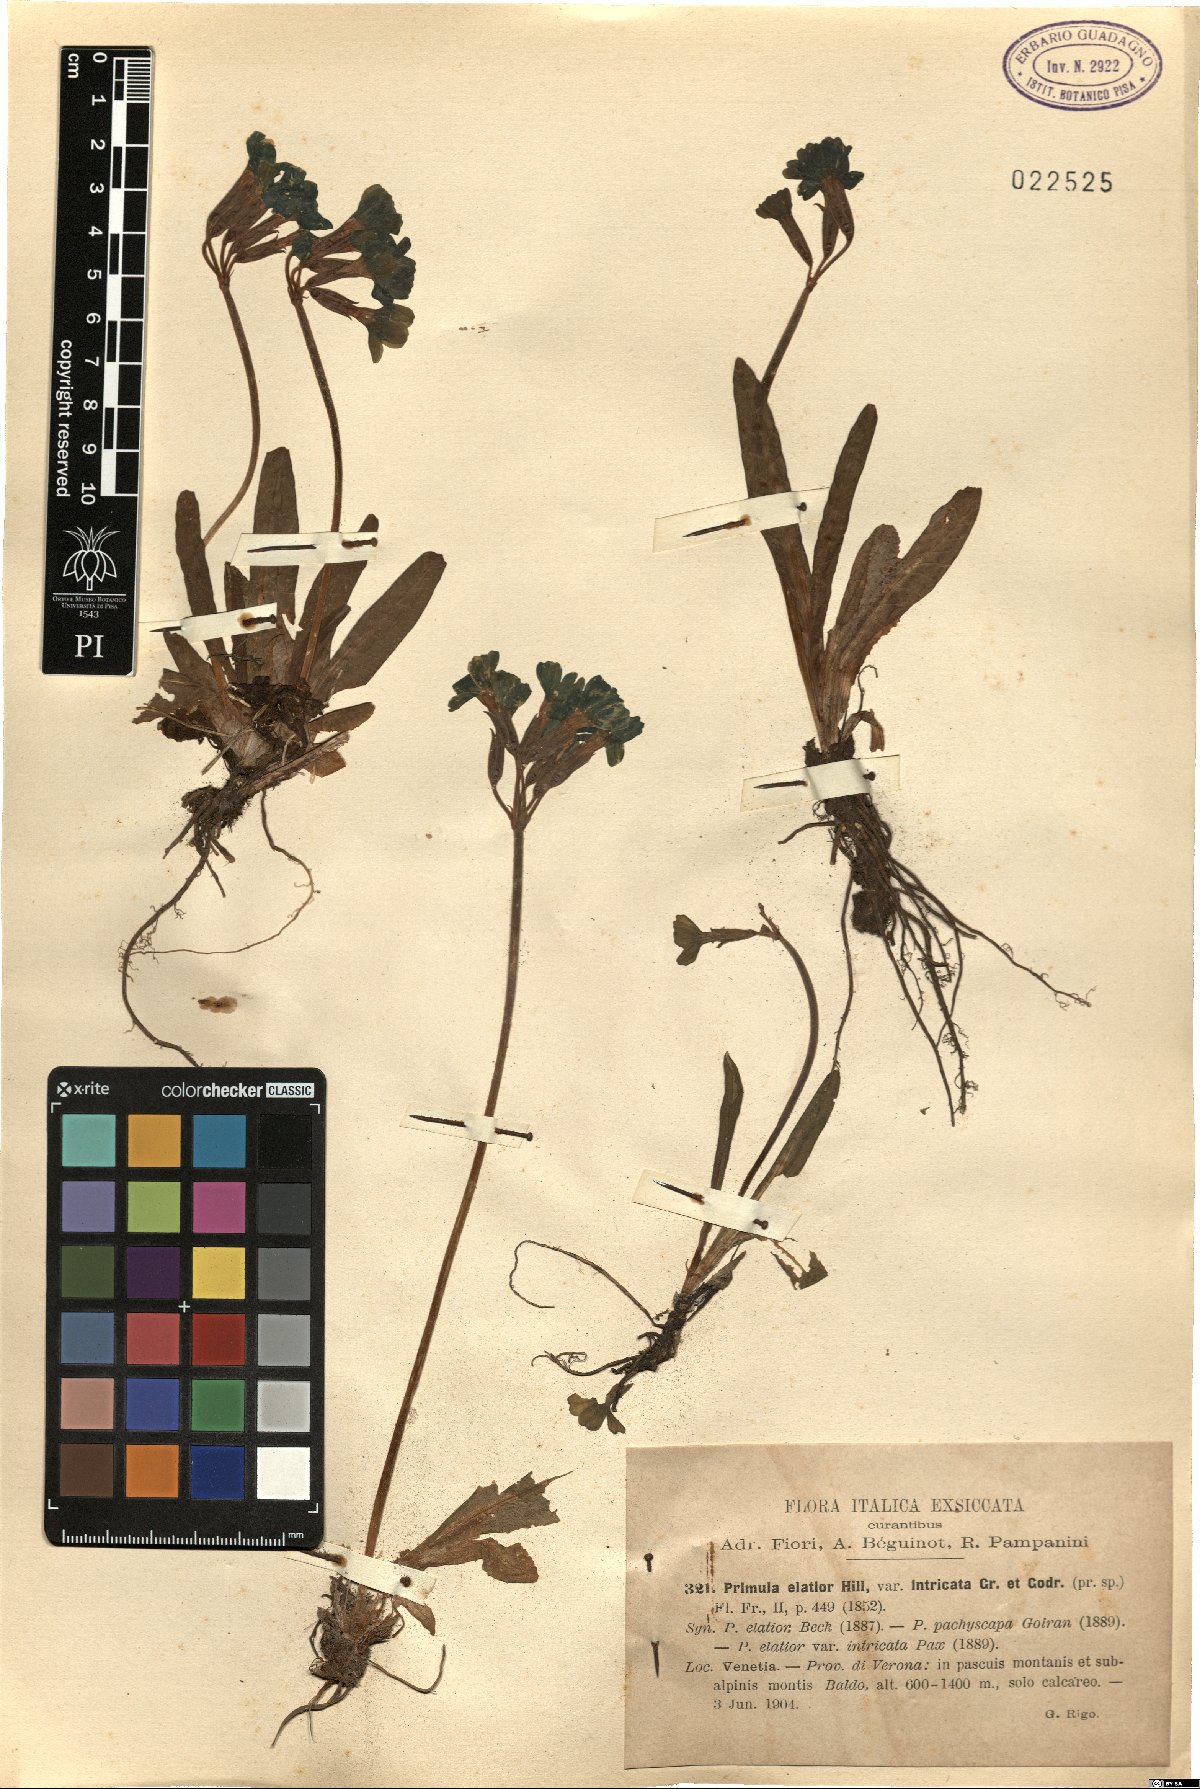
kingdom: Plantae
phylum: Tracheophyta
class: Magnoliopsida
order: Ericales
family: Primulaceae
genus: Primula
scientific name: Primula intricata
